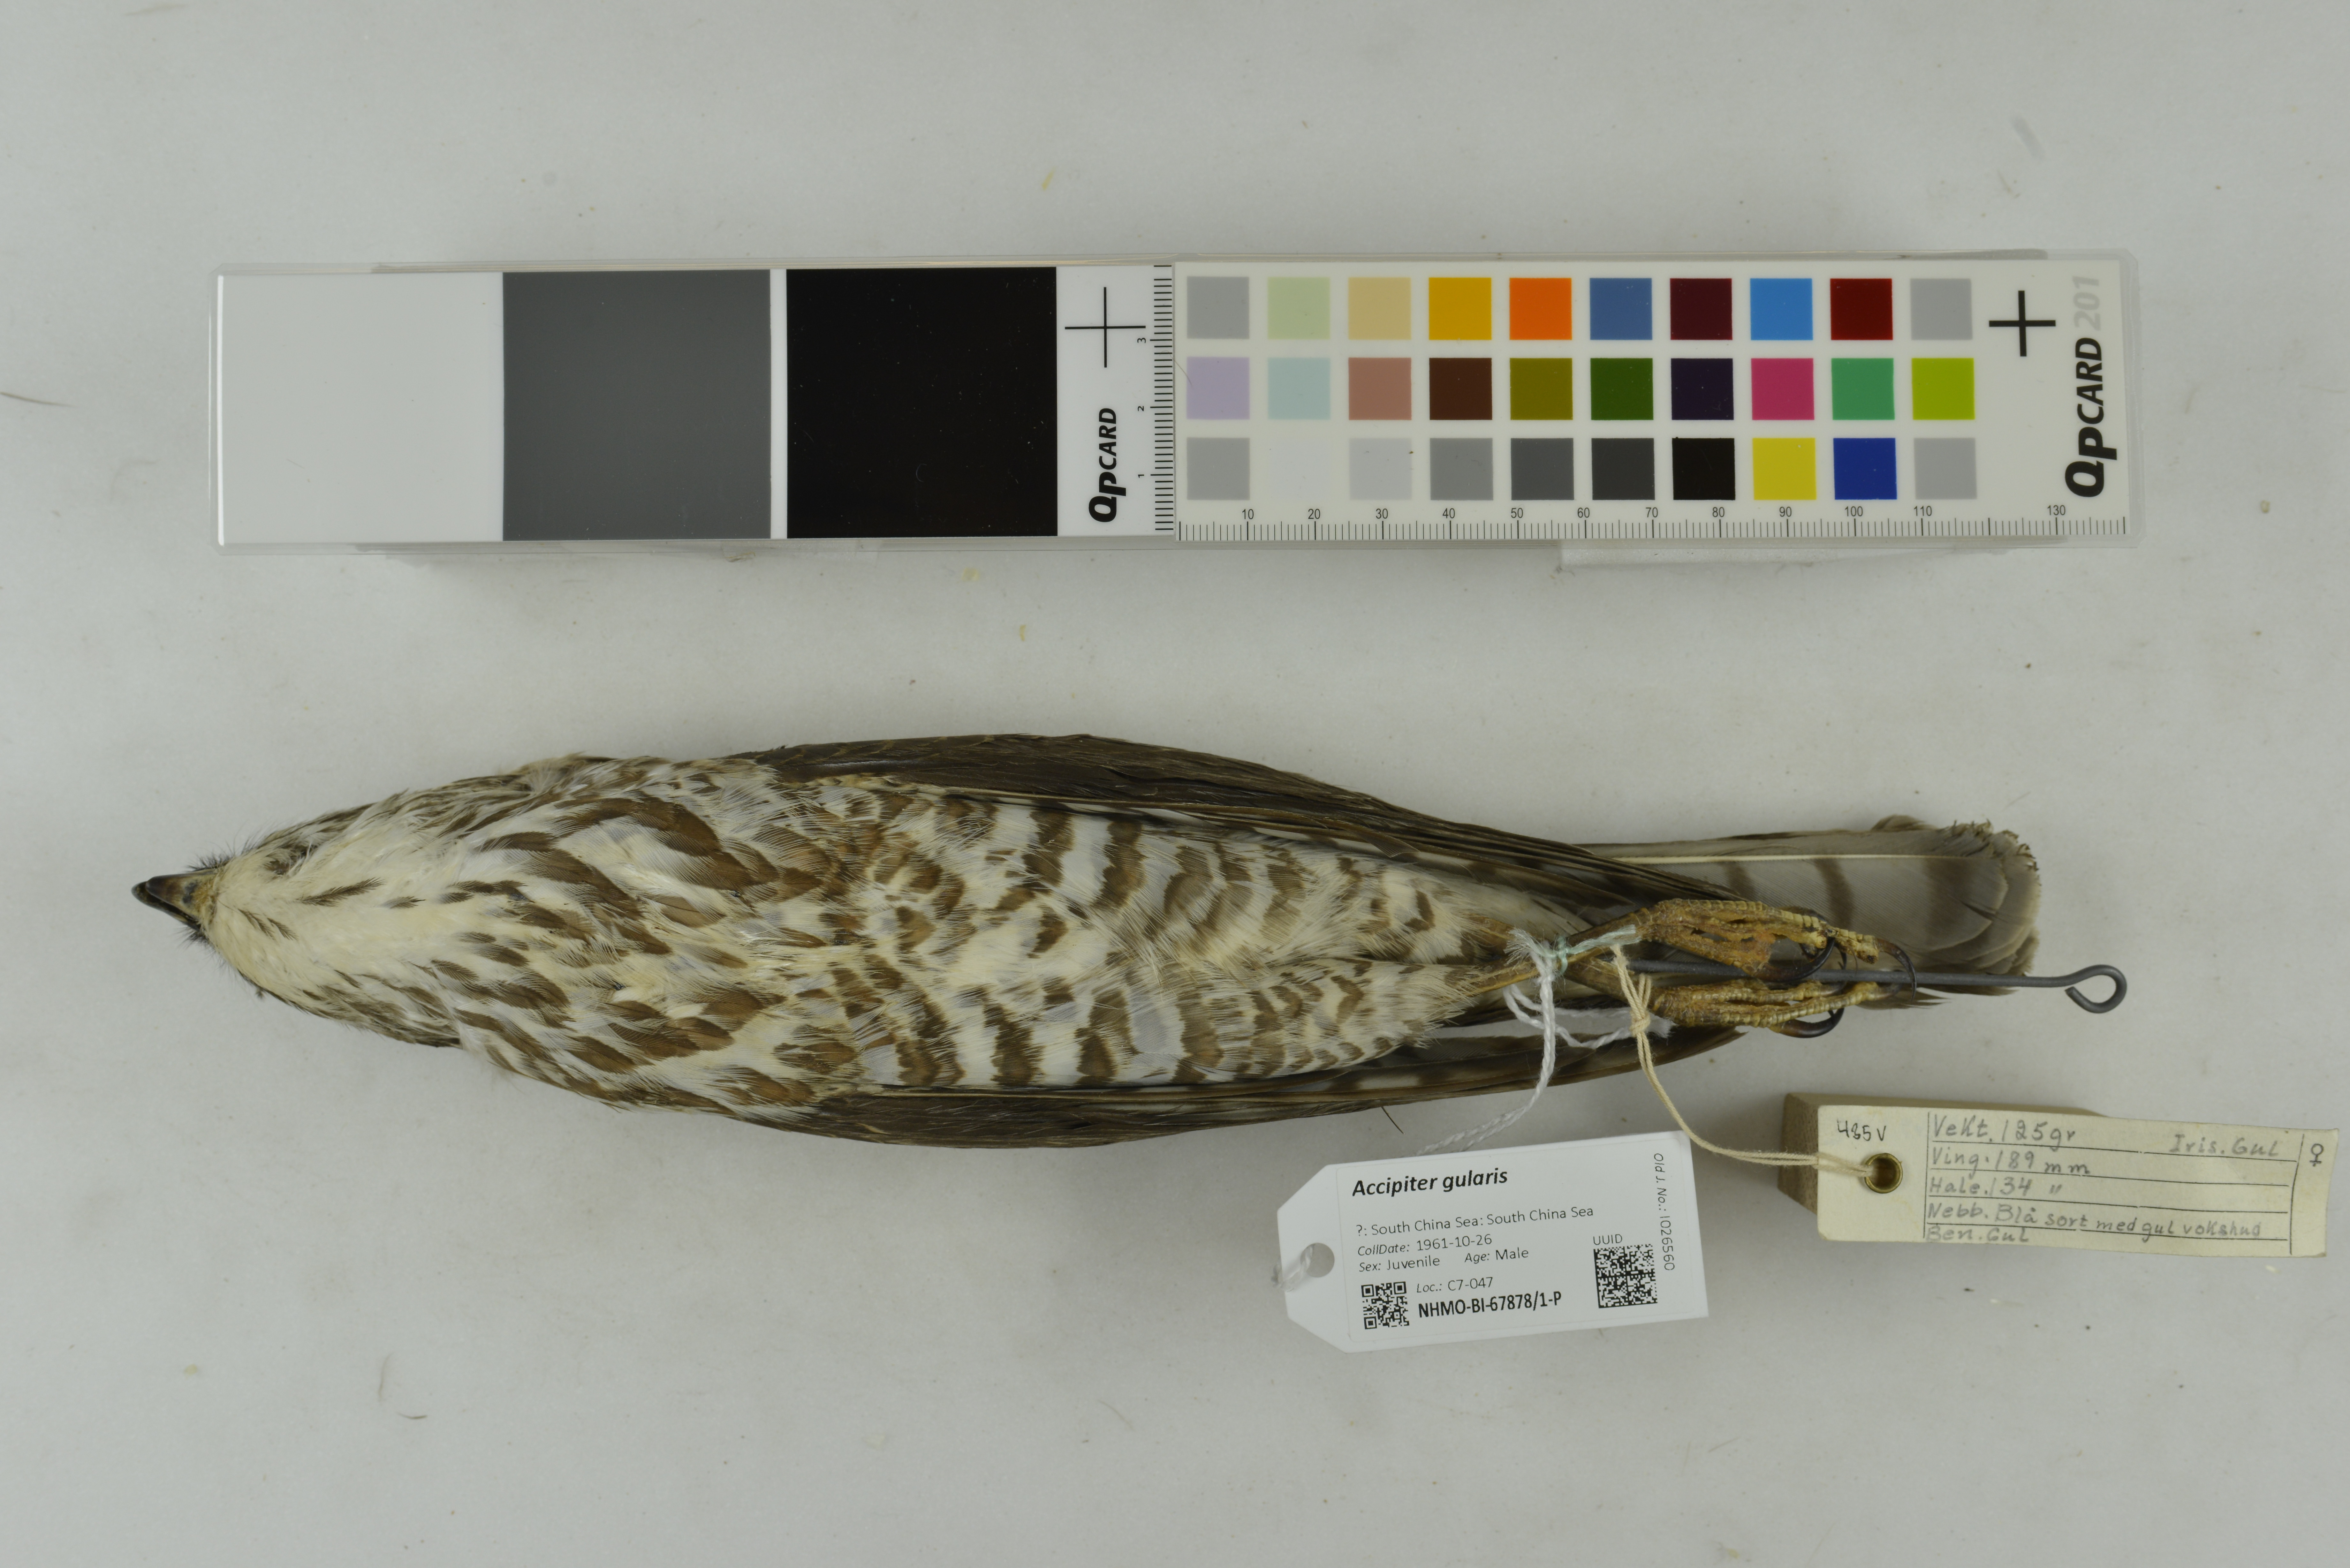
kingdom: Animalia
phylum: Chordata
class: Aves
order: Accipitriformes
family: Accipitridae
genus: Accipiter
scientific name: Accipiter gularis
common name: Japanese sparrowhawk
